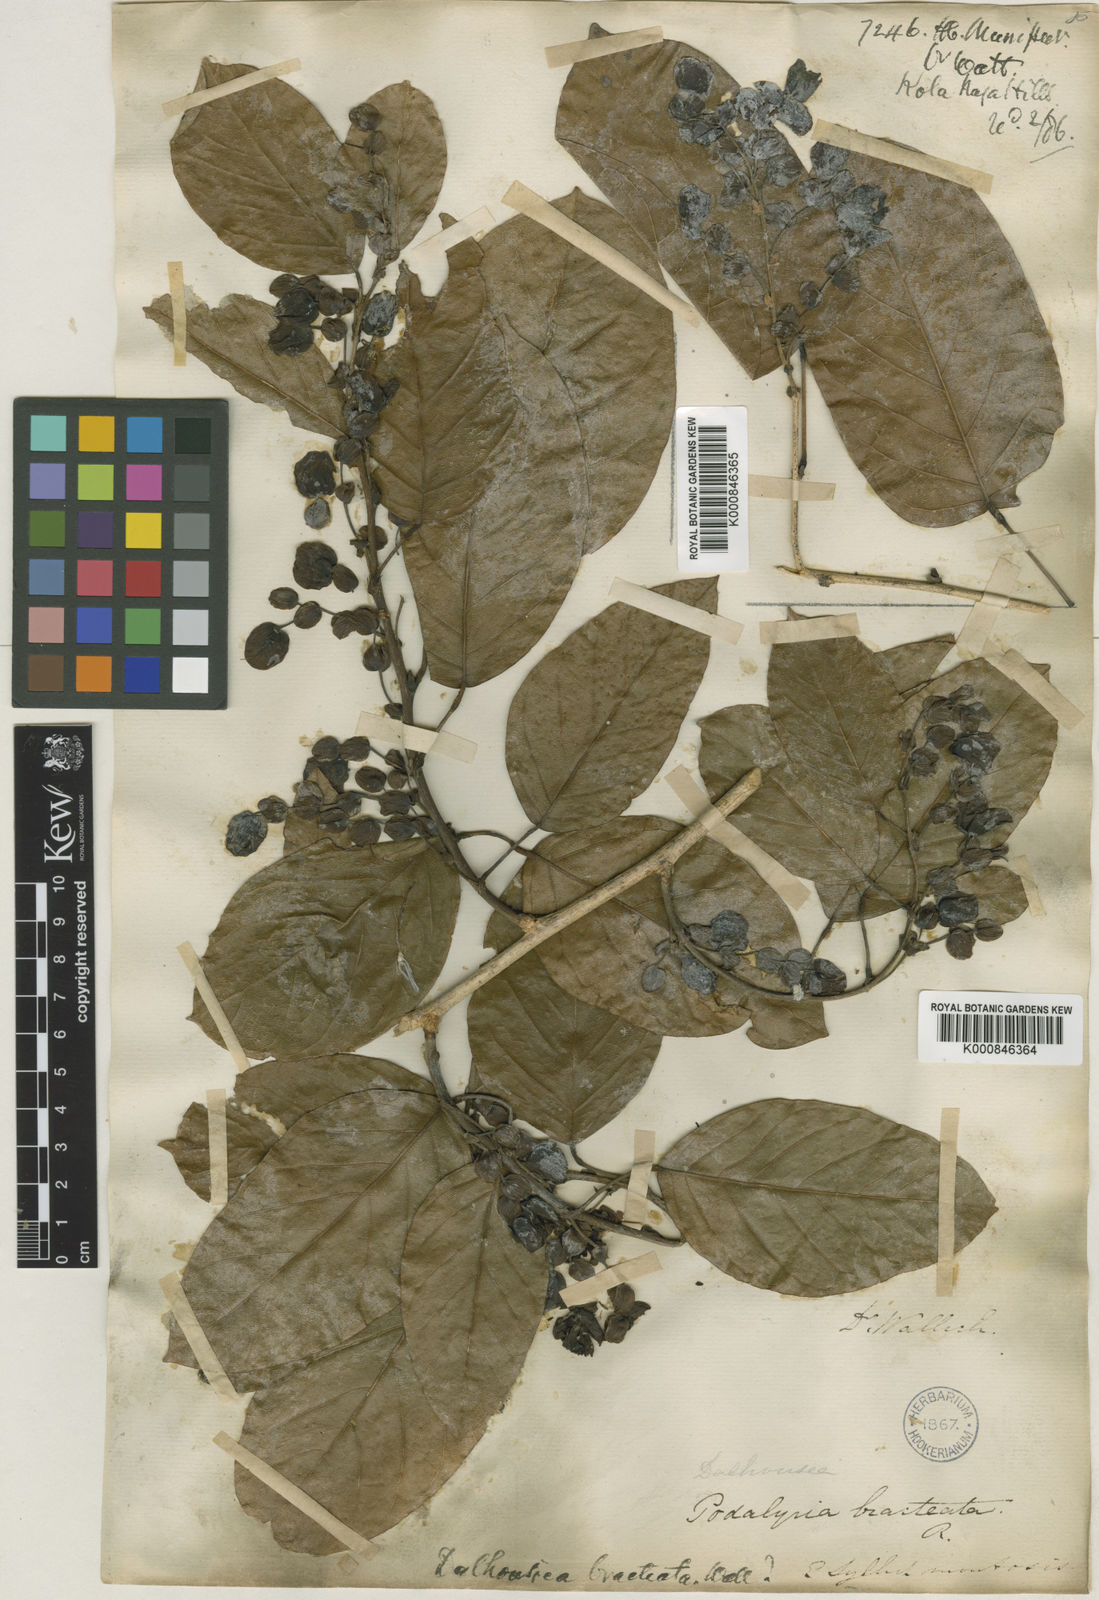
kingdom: Plantae
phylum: Tracheophyta
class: Magnoliopsida
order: Fabales
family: Fabaceae
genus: Dalhousiea
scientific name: Dalhousiea bracteata
